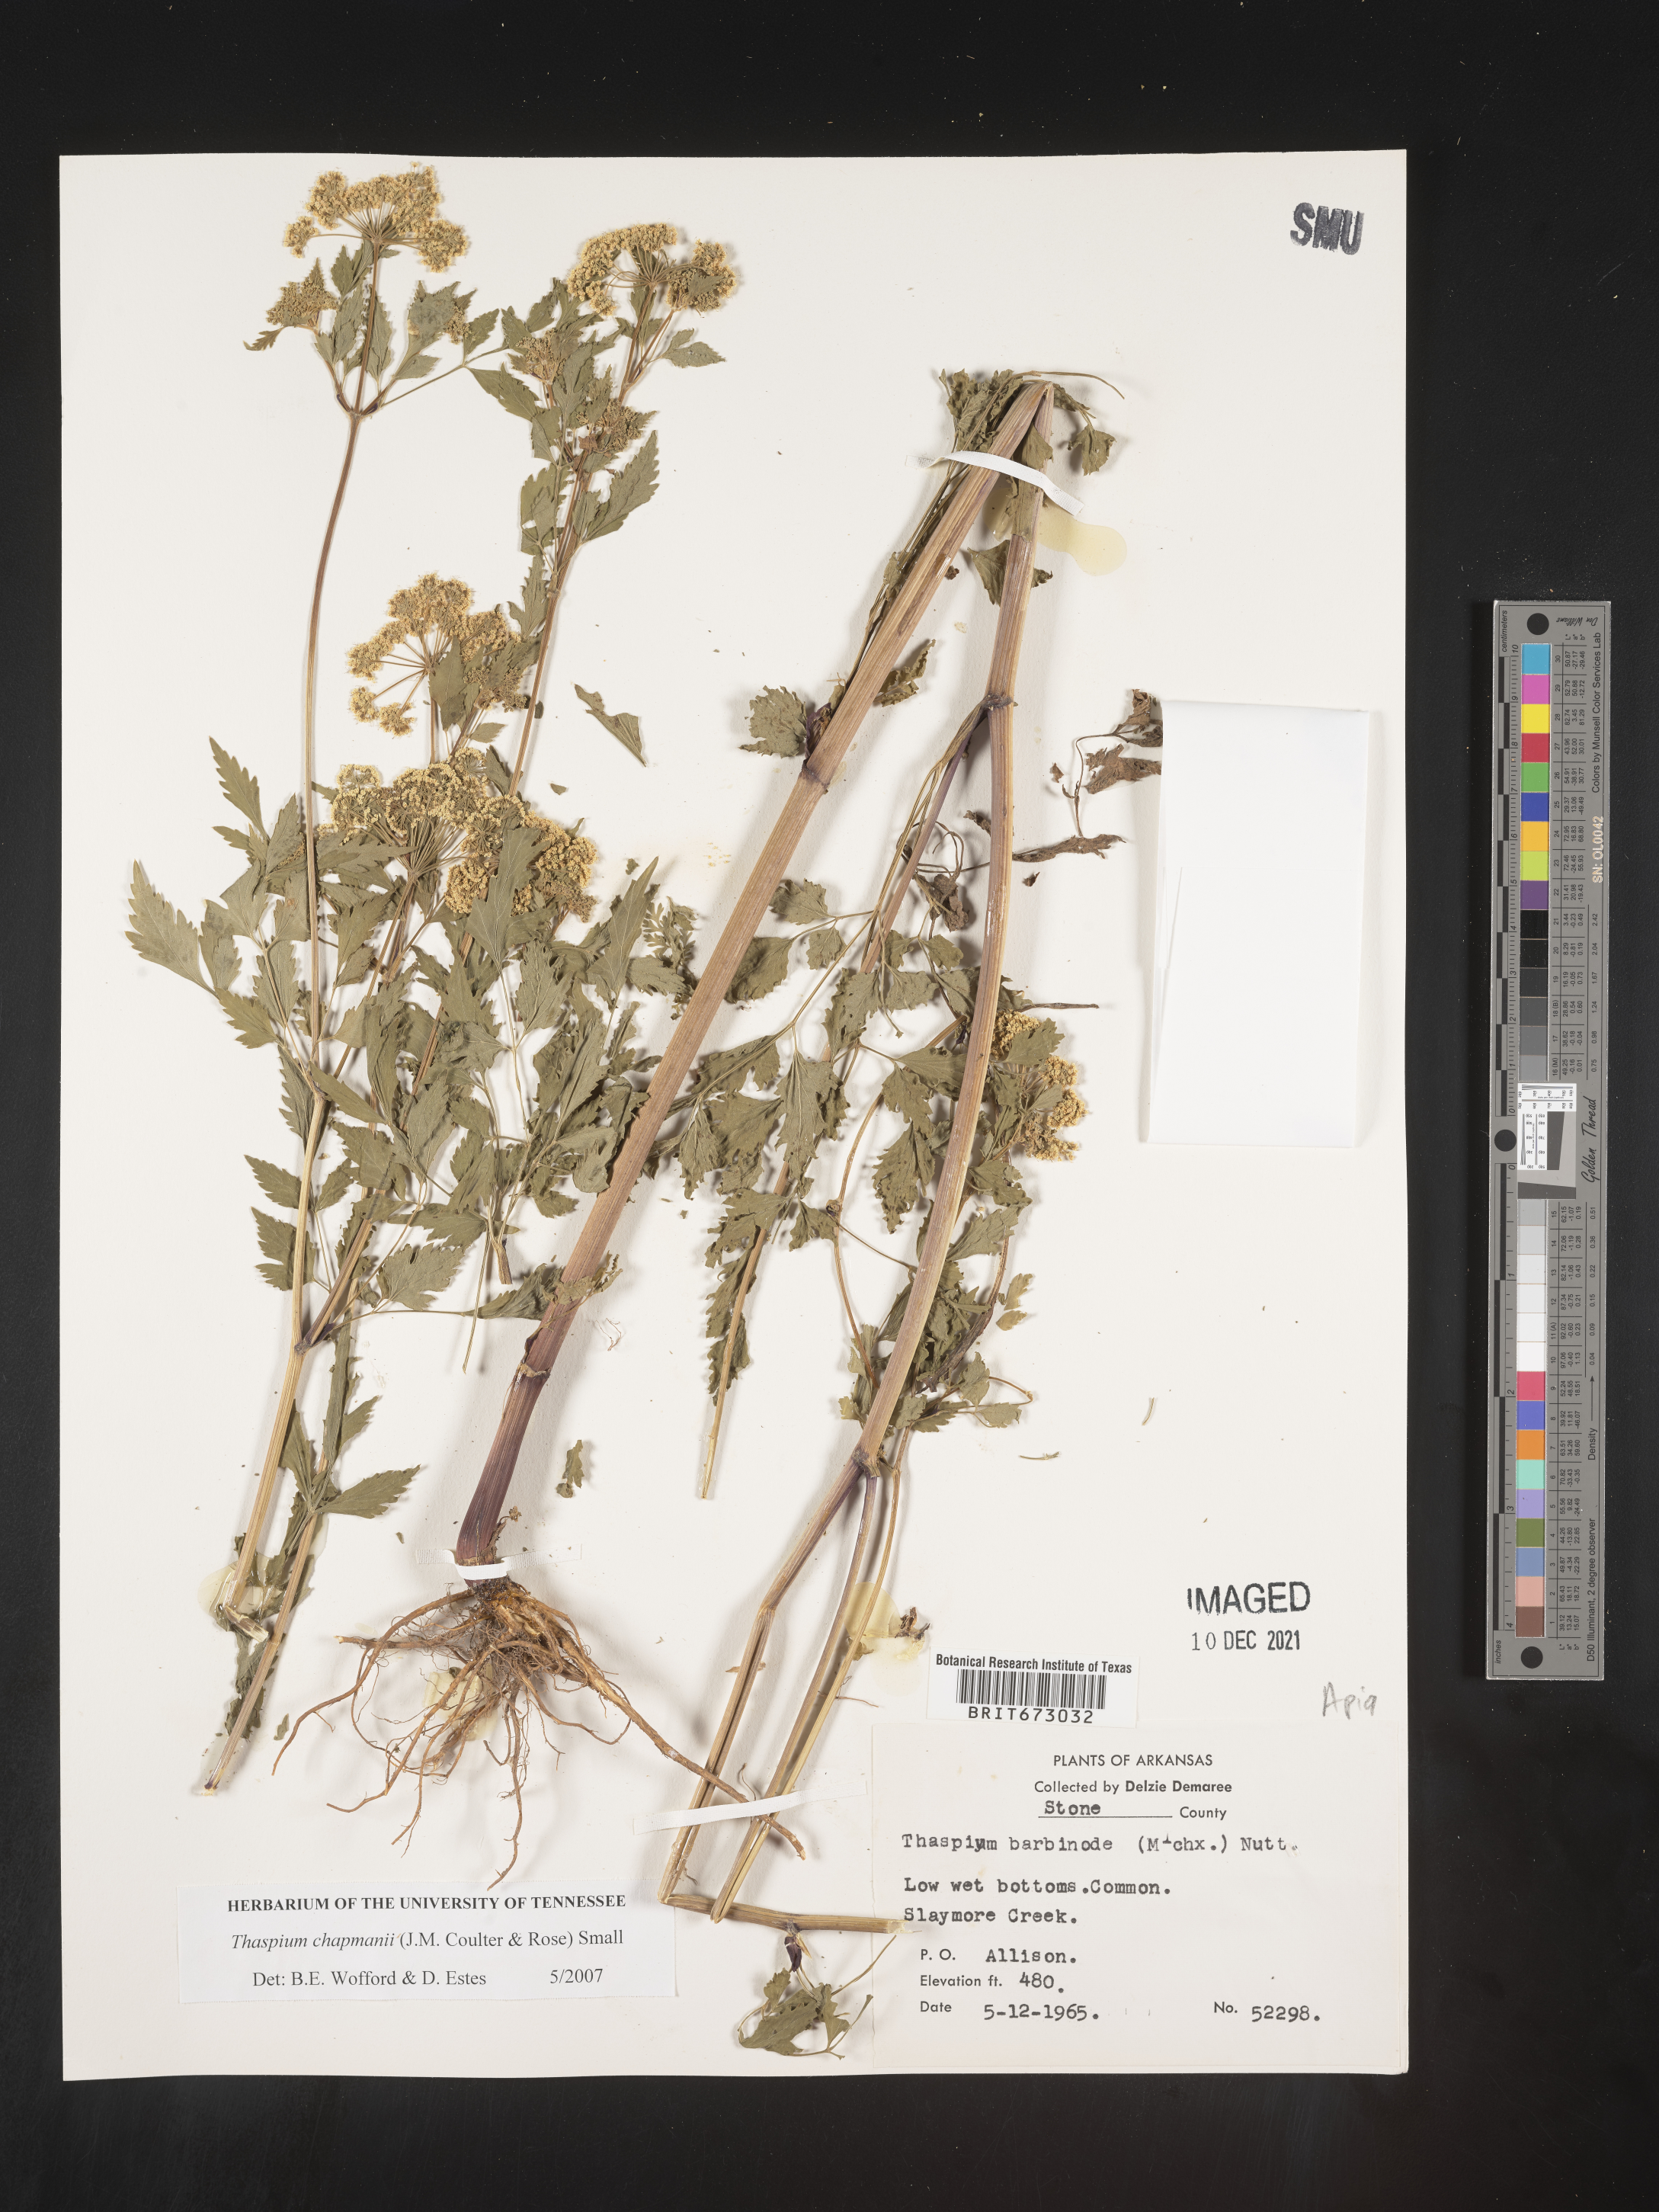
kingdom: Plantae
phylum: Tracheophyta
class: Magnoliopsida
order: Apiales
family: Apiaceae
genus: Thaspium
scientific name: Thaspium barbinode
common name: Bearded meadow-parsnip
